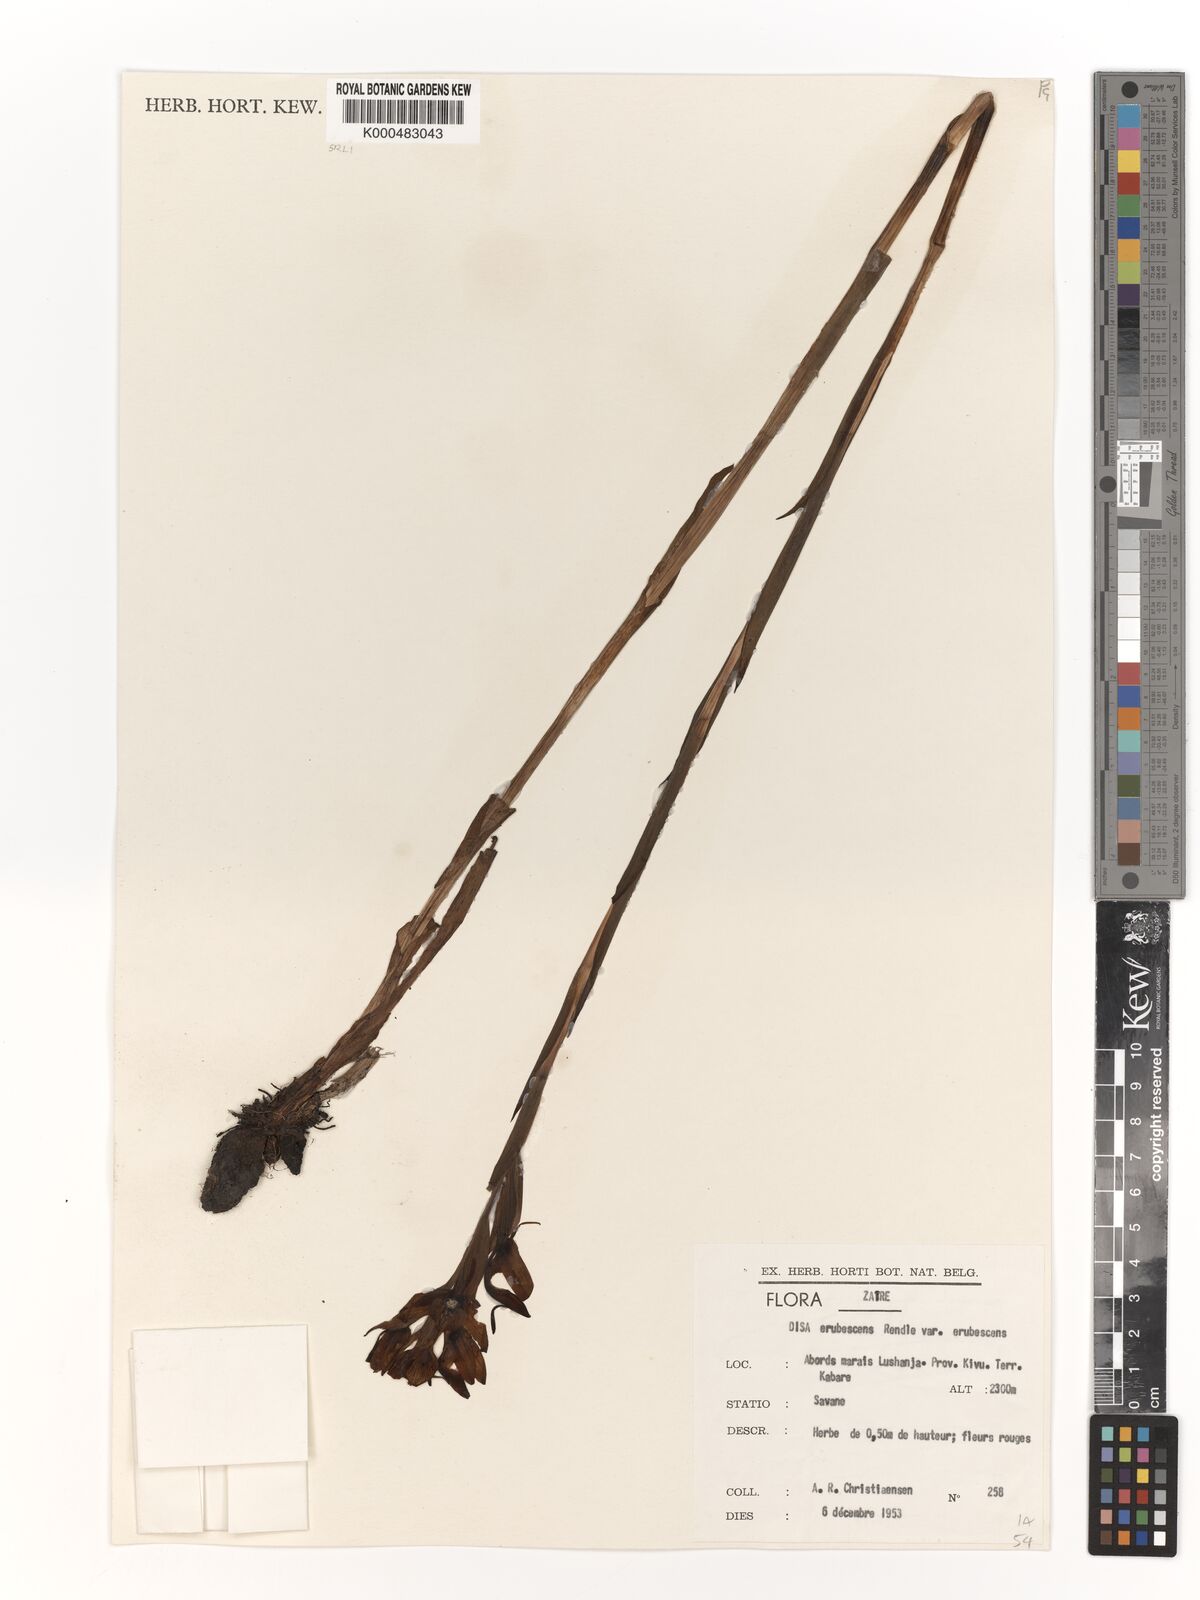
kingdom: Plantae
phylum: Tracheophyta
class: Liliopsida
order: Asparagales
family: Orchidaceae
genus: Disa
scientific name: Disa erubescens
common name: The rose disa
